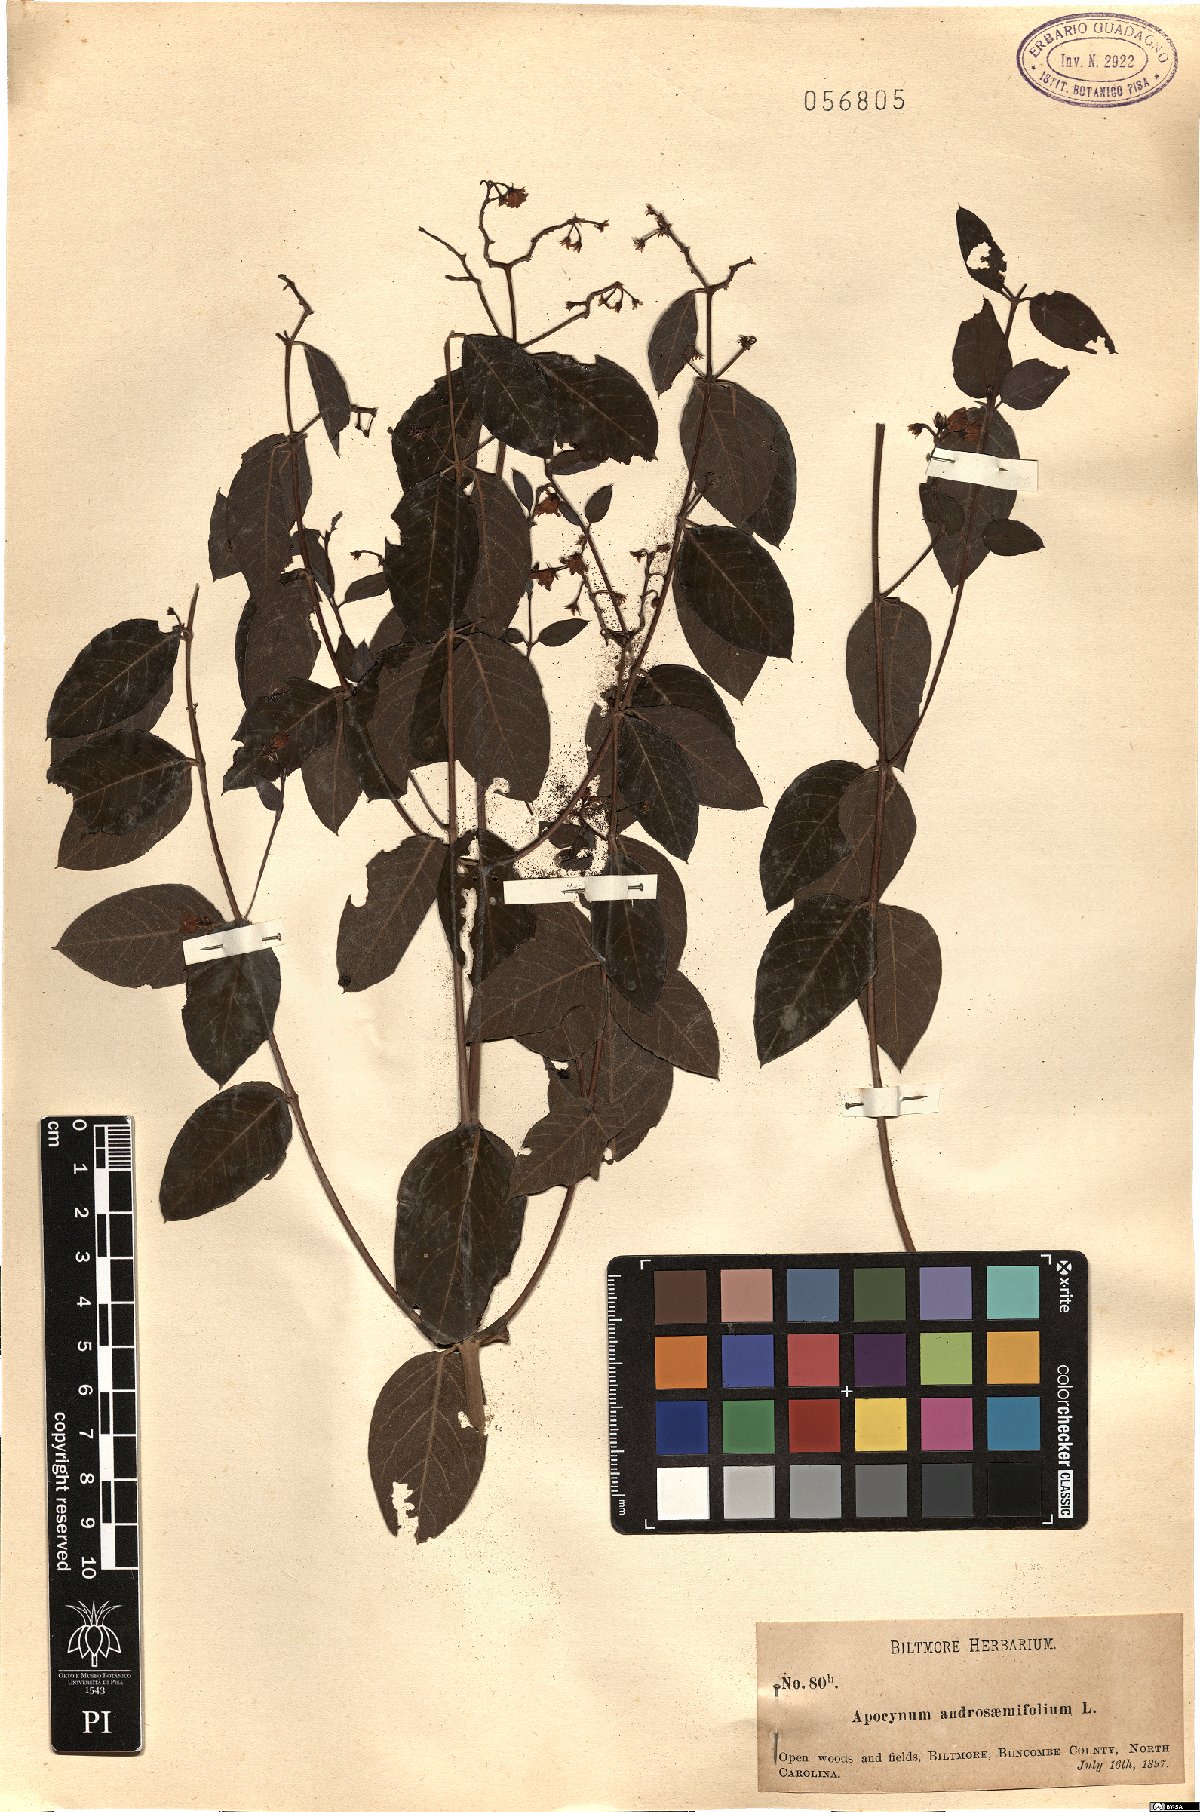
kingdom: Plantae
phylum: Tracheophyta
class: Magnoliopsida
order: Gentianales
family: Apocynaceae
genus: Apocynum
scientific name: Apocynum androsaemifolium
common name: Spreading dogbane
